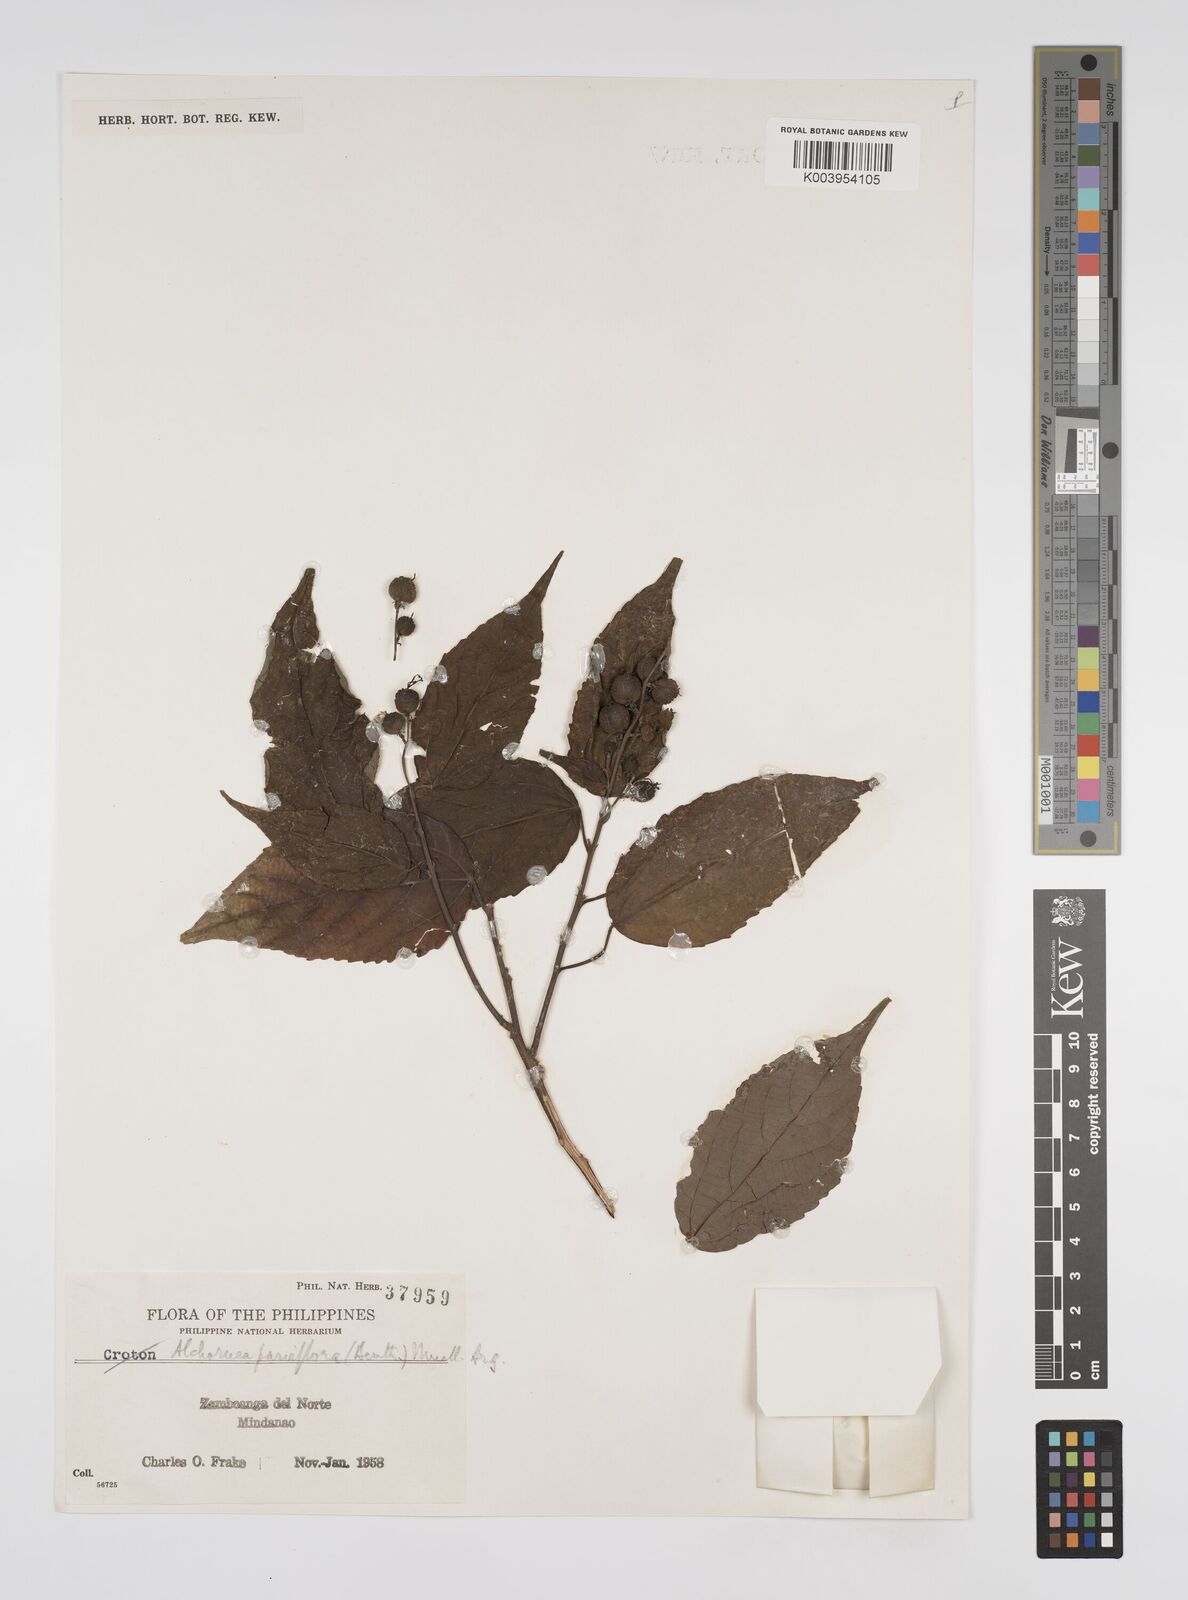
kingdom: Plantae
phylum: Tracheophyta
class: Magnoliopsida
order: Malpighiales
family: Euphorbiaceae
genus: Alchornea
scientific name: Alchornea parviflora
